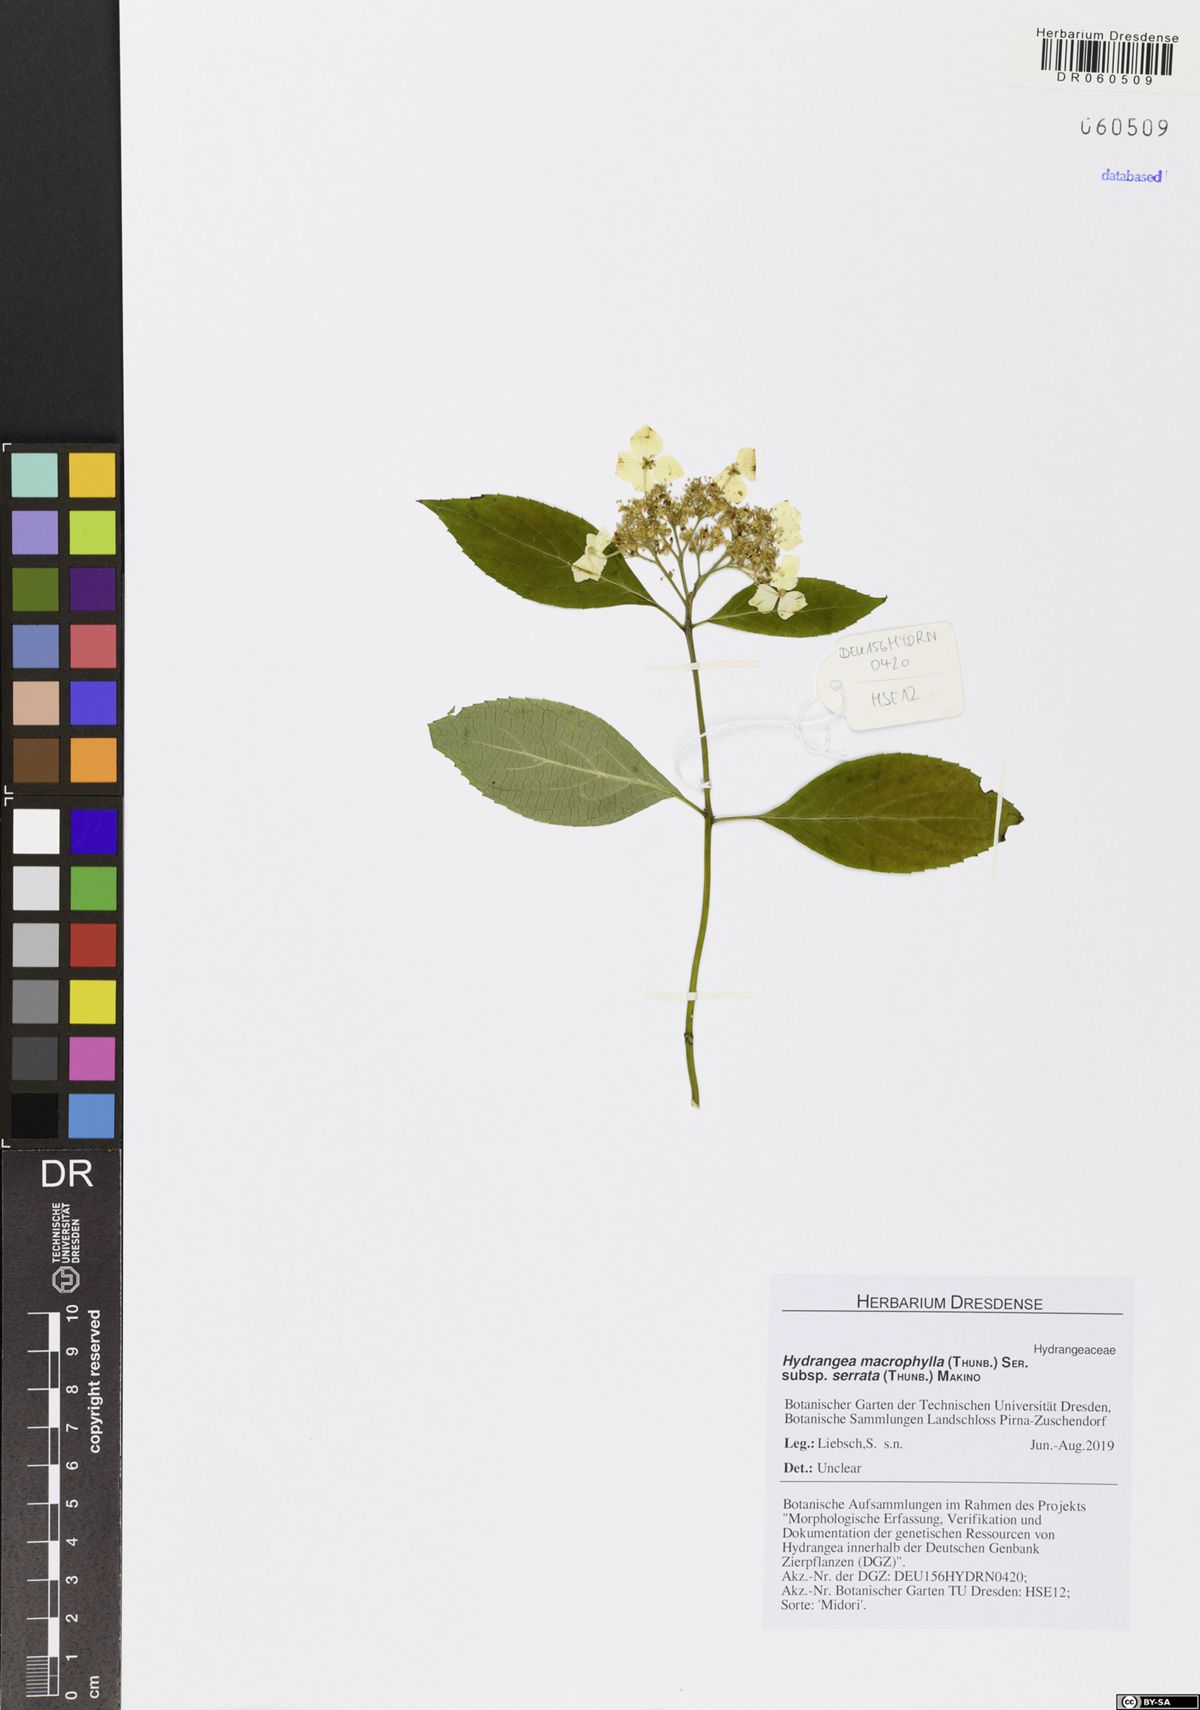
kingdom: Plantae
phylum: Tracheophyta
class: Magnoliopsida
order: Cornales
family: Hydrangeaceae
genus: Hydrangea
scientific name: Hydrangea serrata
